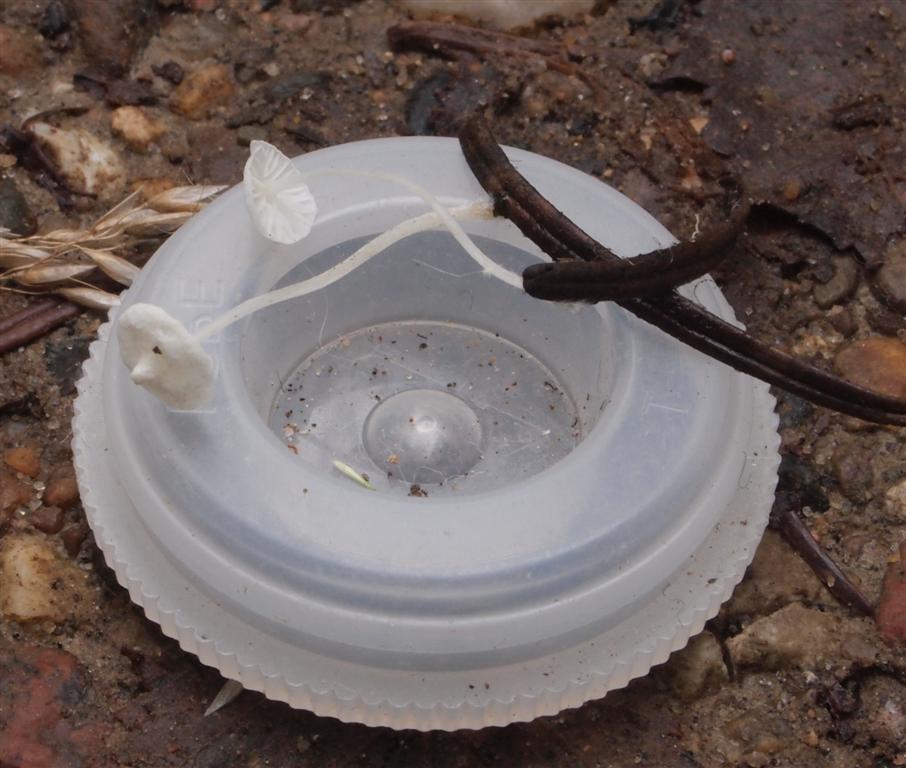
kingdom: Fungi
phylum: Basidiomycota
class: Agaricomycetes
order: Agaricales
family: Mycenaceae
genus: Hemimycena
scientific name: Hemimycena lactea
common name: mælkehvid huesvamp
